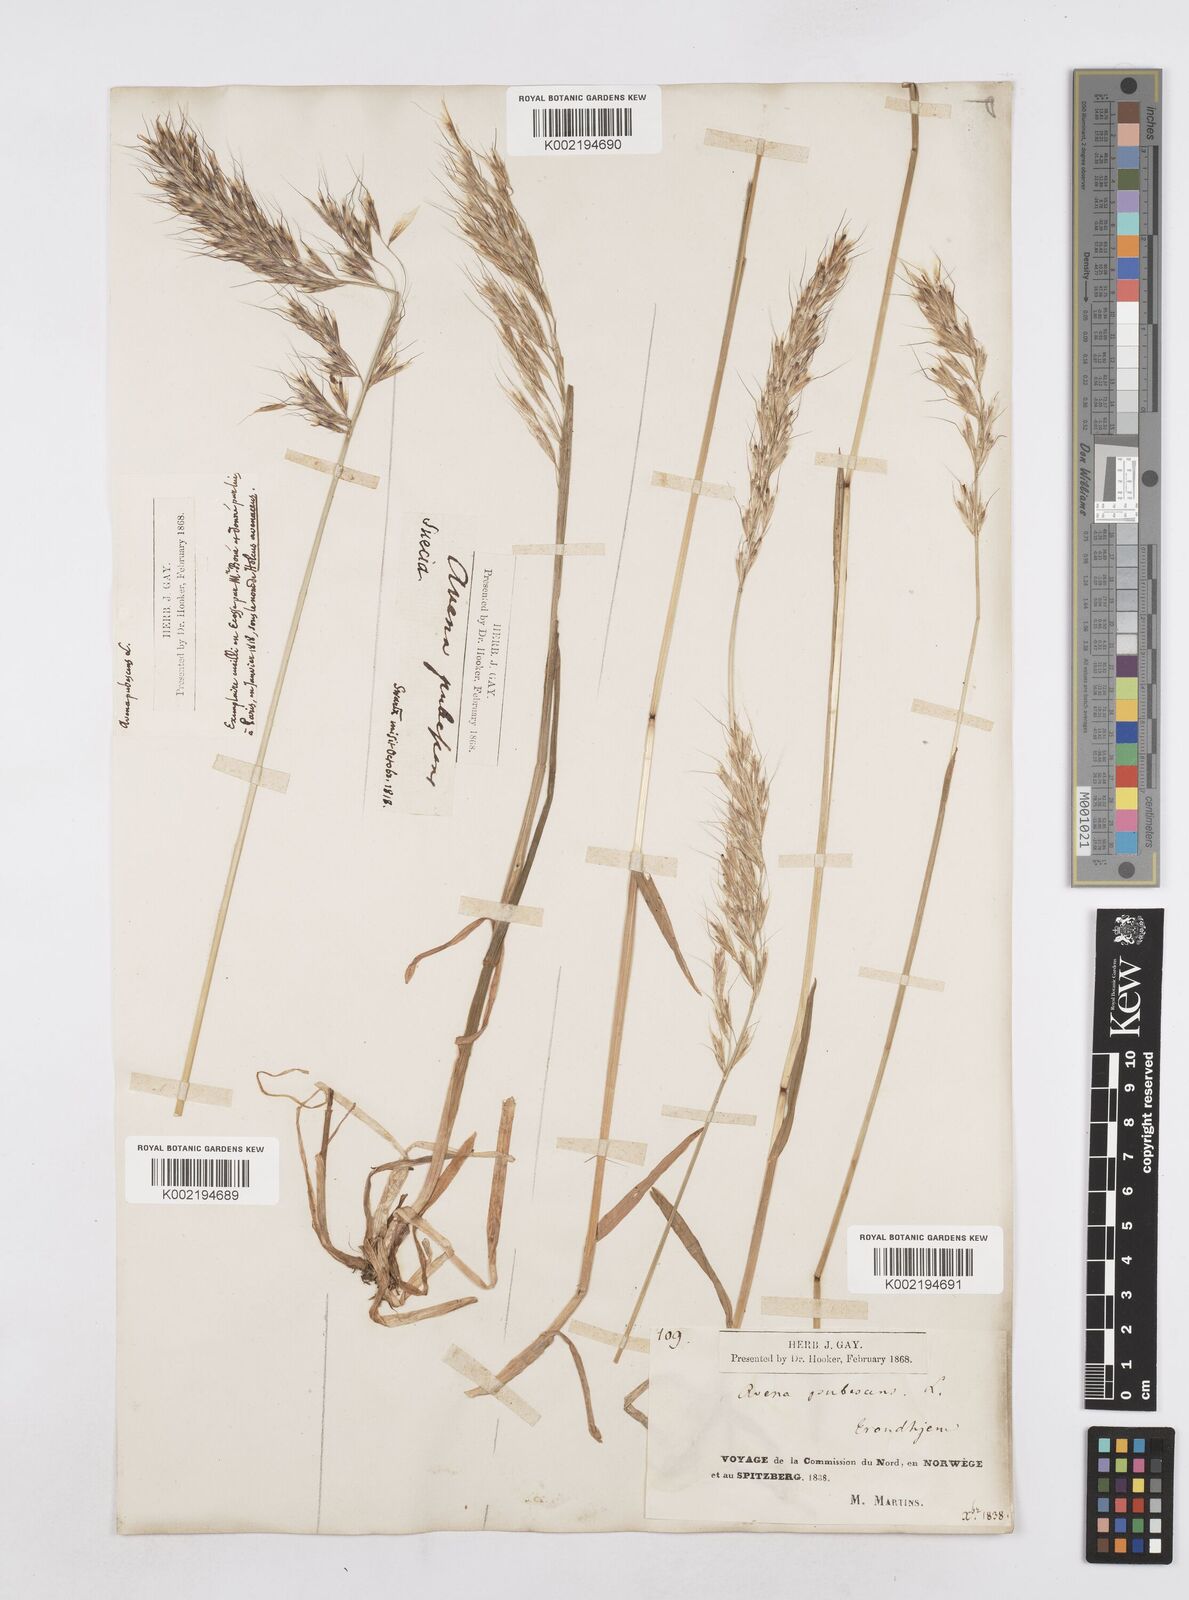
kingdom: Plantae
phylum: Tracheophyta
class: Liliopsida
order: Poales
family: Poaceae
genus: Avenula
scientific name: Avenula pubescens
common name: Downy alpine oatgrass
